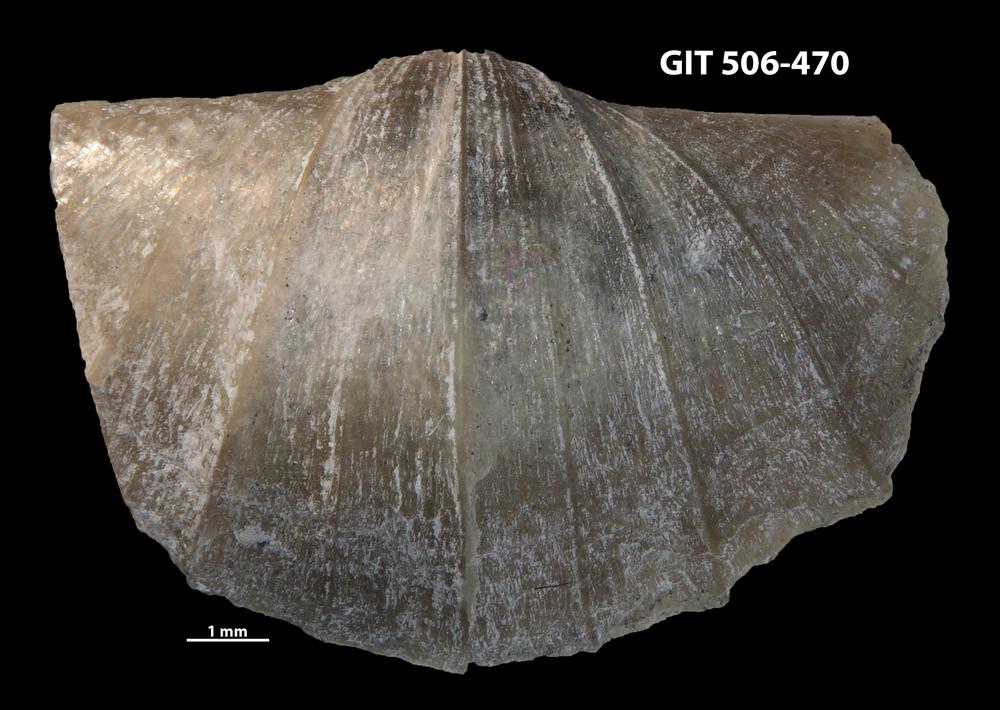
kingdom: Animalia
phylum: Brachiopoda
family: Oldhaminidae
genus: Eoplectodonta
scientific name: Eoplectodonta penkillensis
